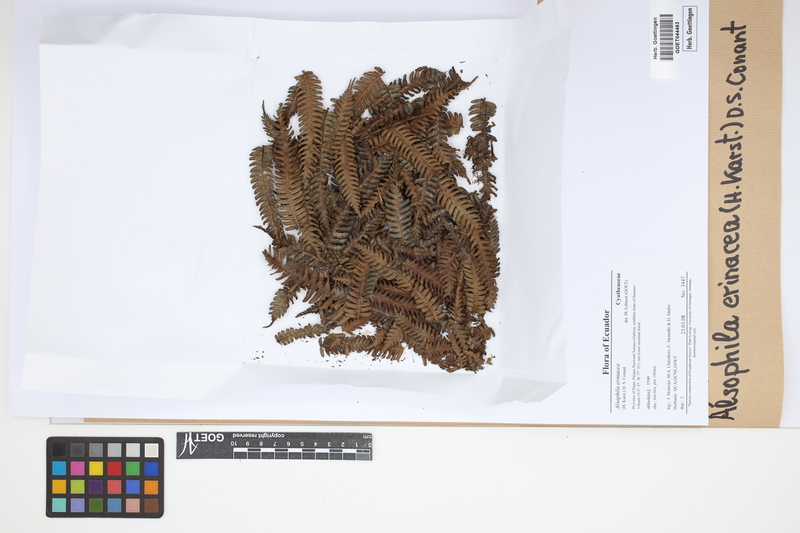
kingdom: Plantae
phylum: Tracheophyta
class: Polypodiopsida
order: Cyatheales
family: Cyatheaceae
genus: Alsophila
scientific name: Alsophila erinacea
